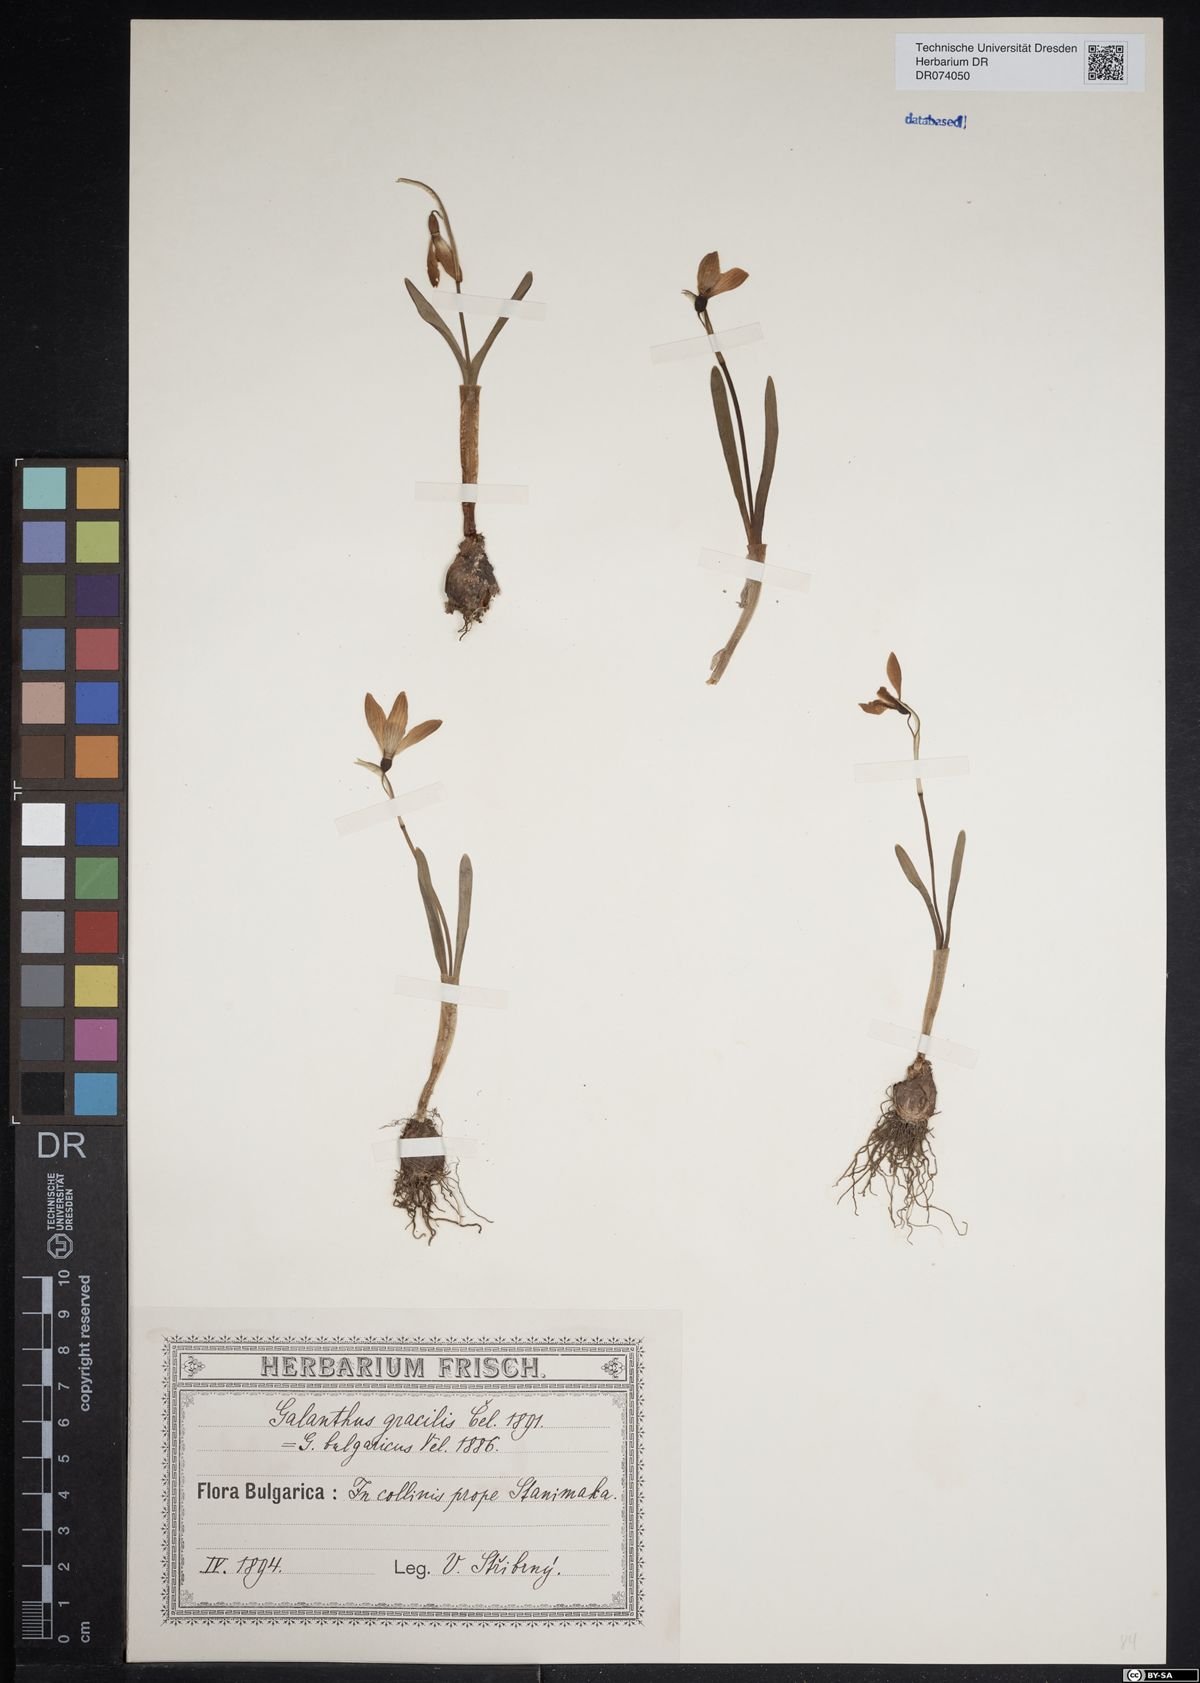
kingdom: Plantae
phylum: Tracheophyta
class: Liliopsida
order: Asparagales
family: Amaryllidaceae
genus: Galanthus
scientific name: Galanthus gracilis
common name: Snowdrop
